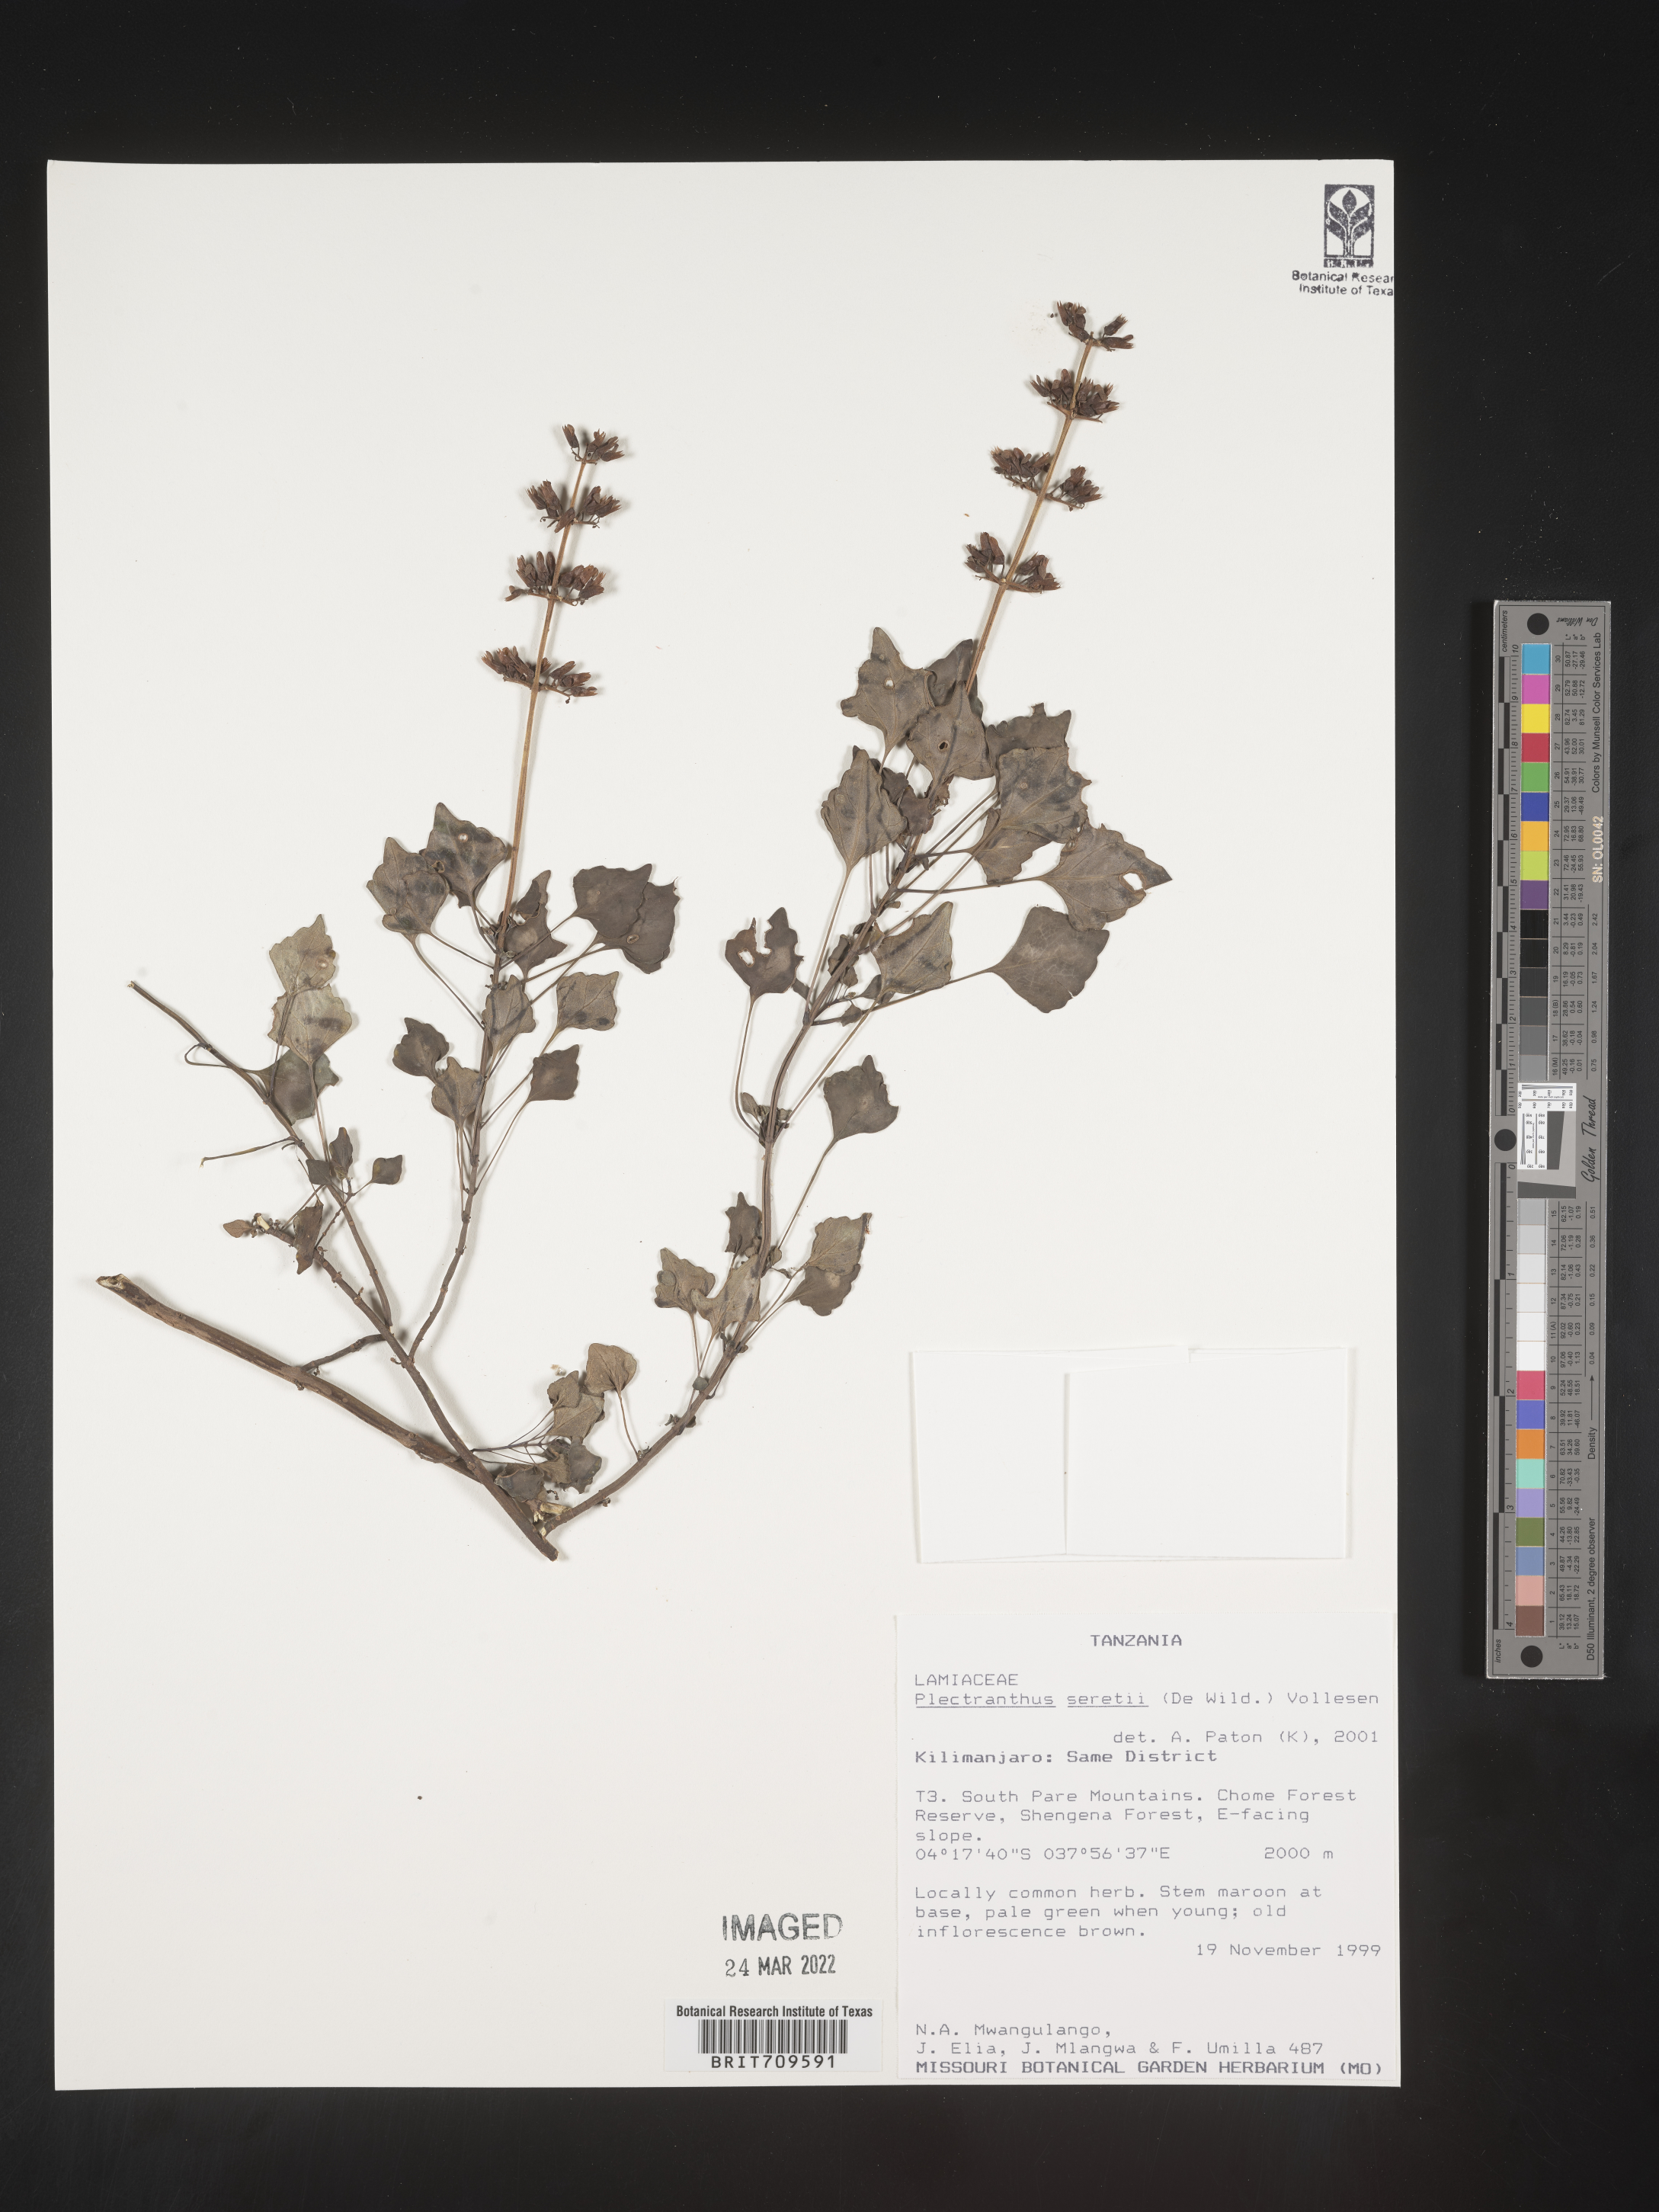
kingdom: Plantae
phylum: Tracheophyta
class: Magnoliopsida
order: Lamiales
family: Lamiaceae
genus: Plectranthus
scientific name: Plectranthus
